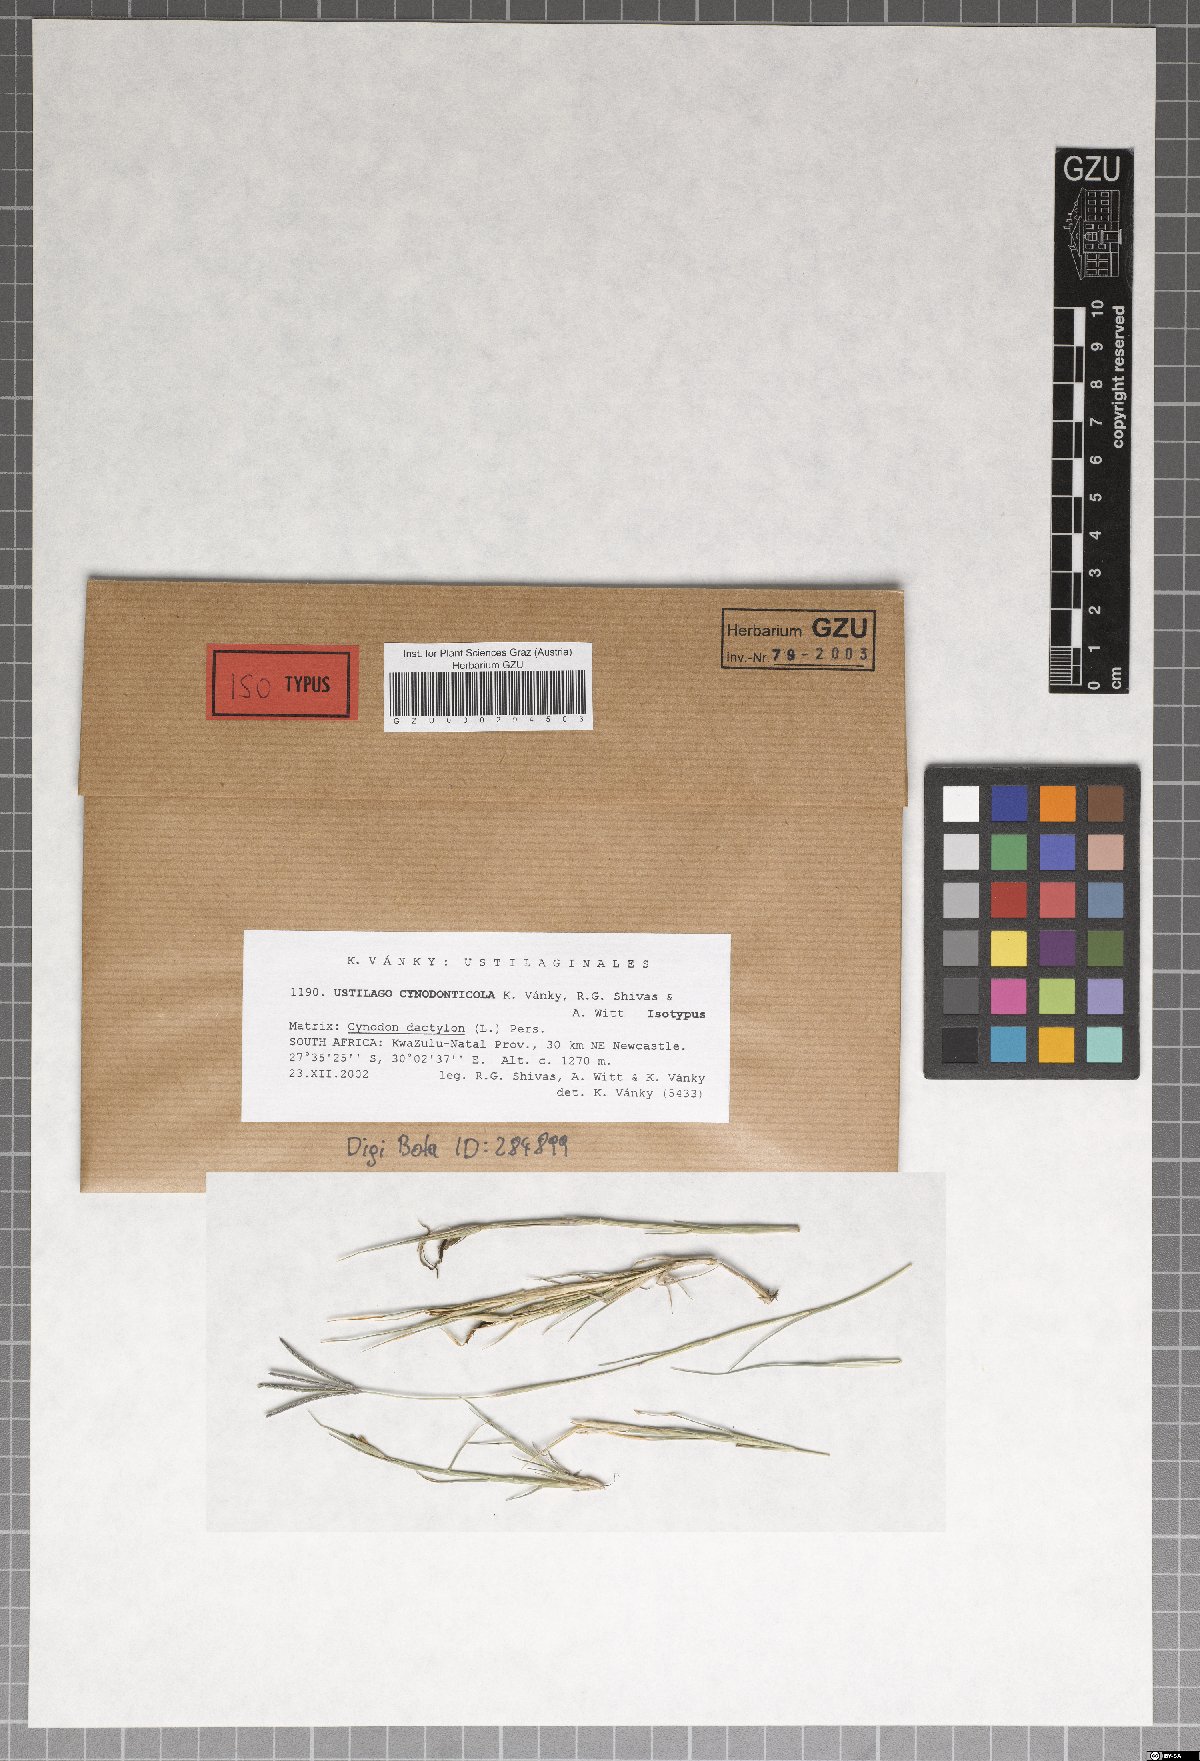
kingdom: Fungi
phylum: Basidiomycota
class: Ustilaginomycetes
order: Ustilaginales
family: Ustilaginaceae
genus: Ustilago
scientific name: Ustilago cynodonticola
